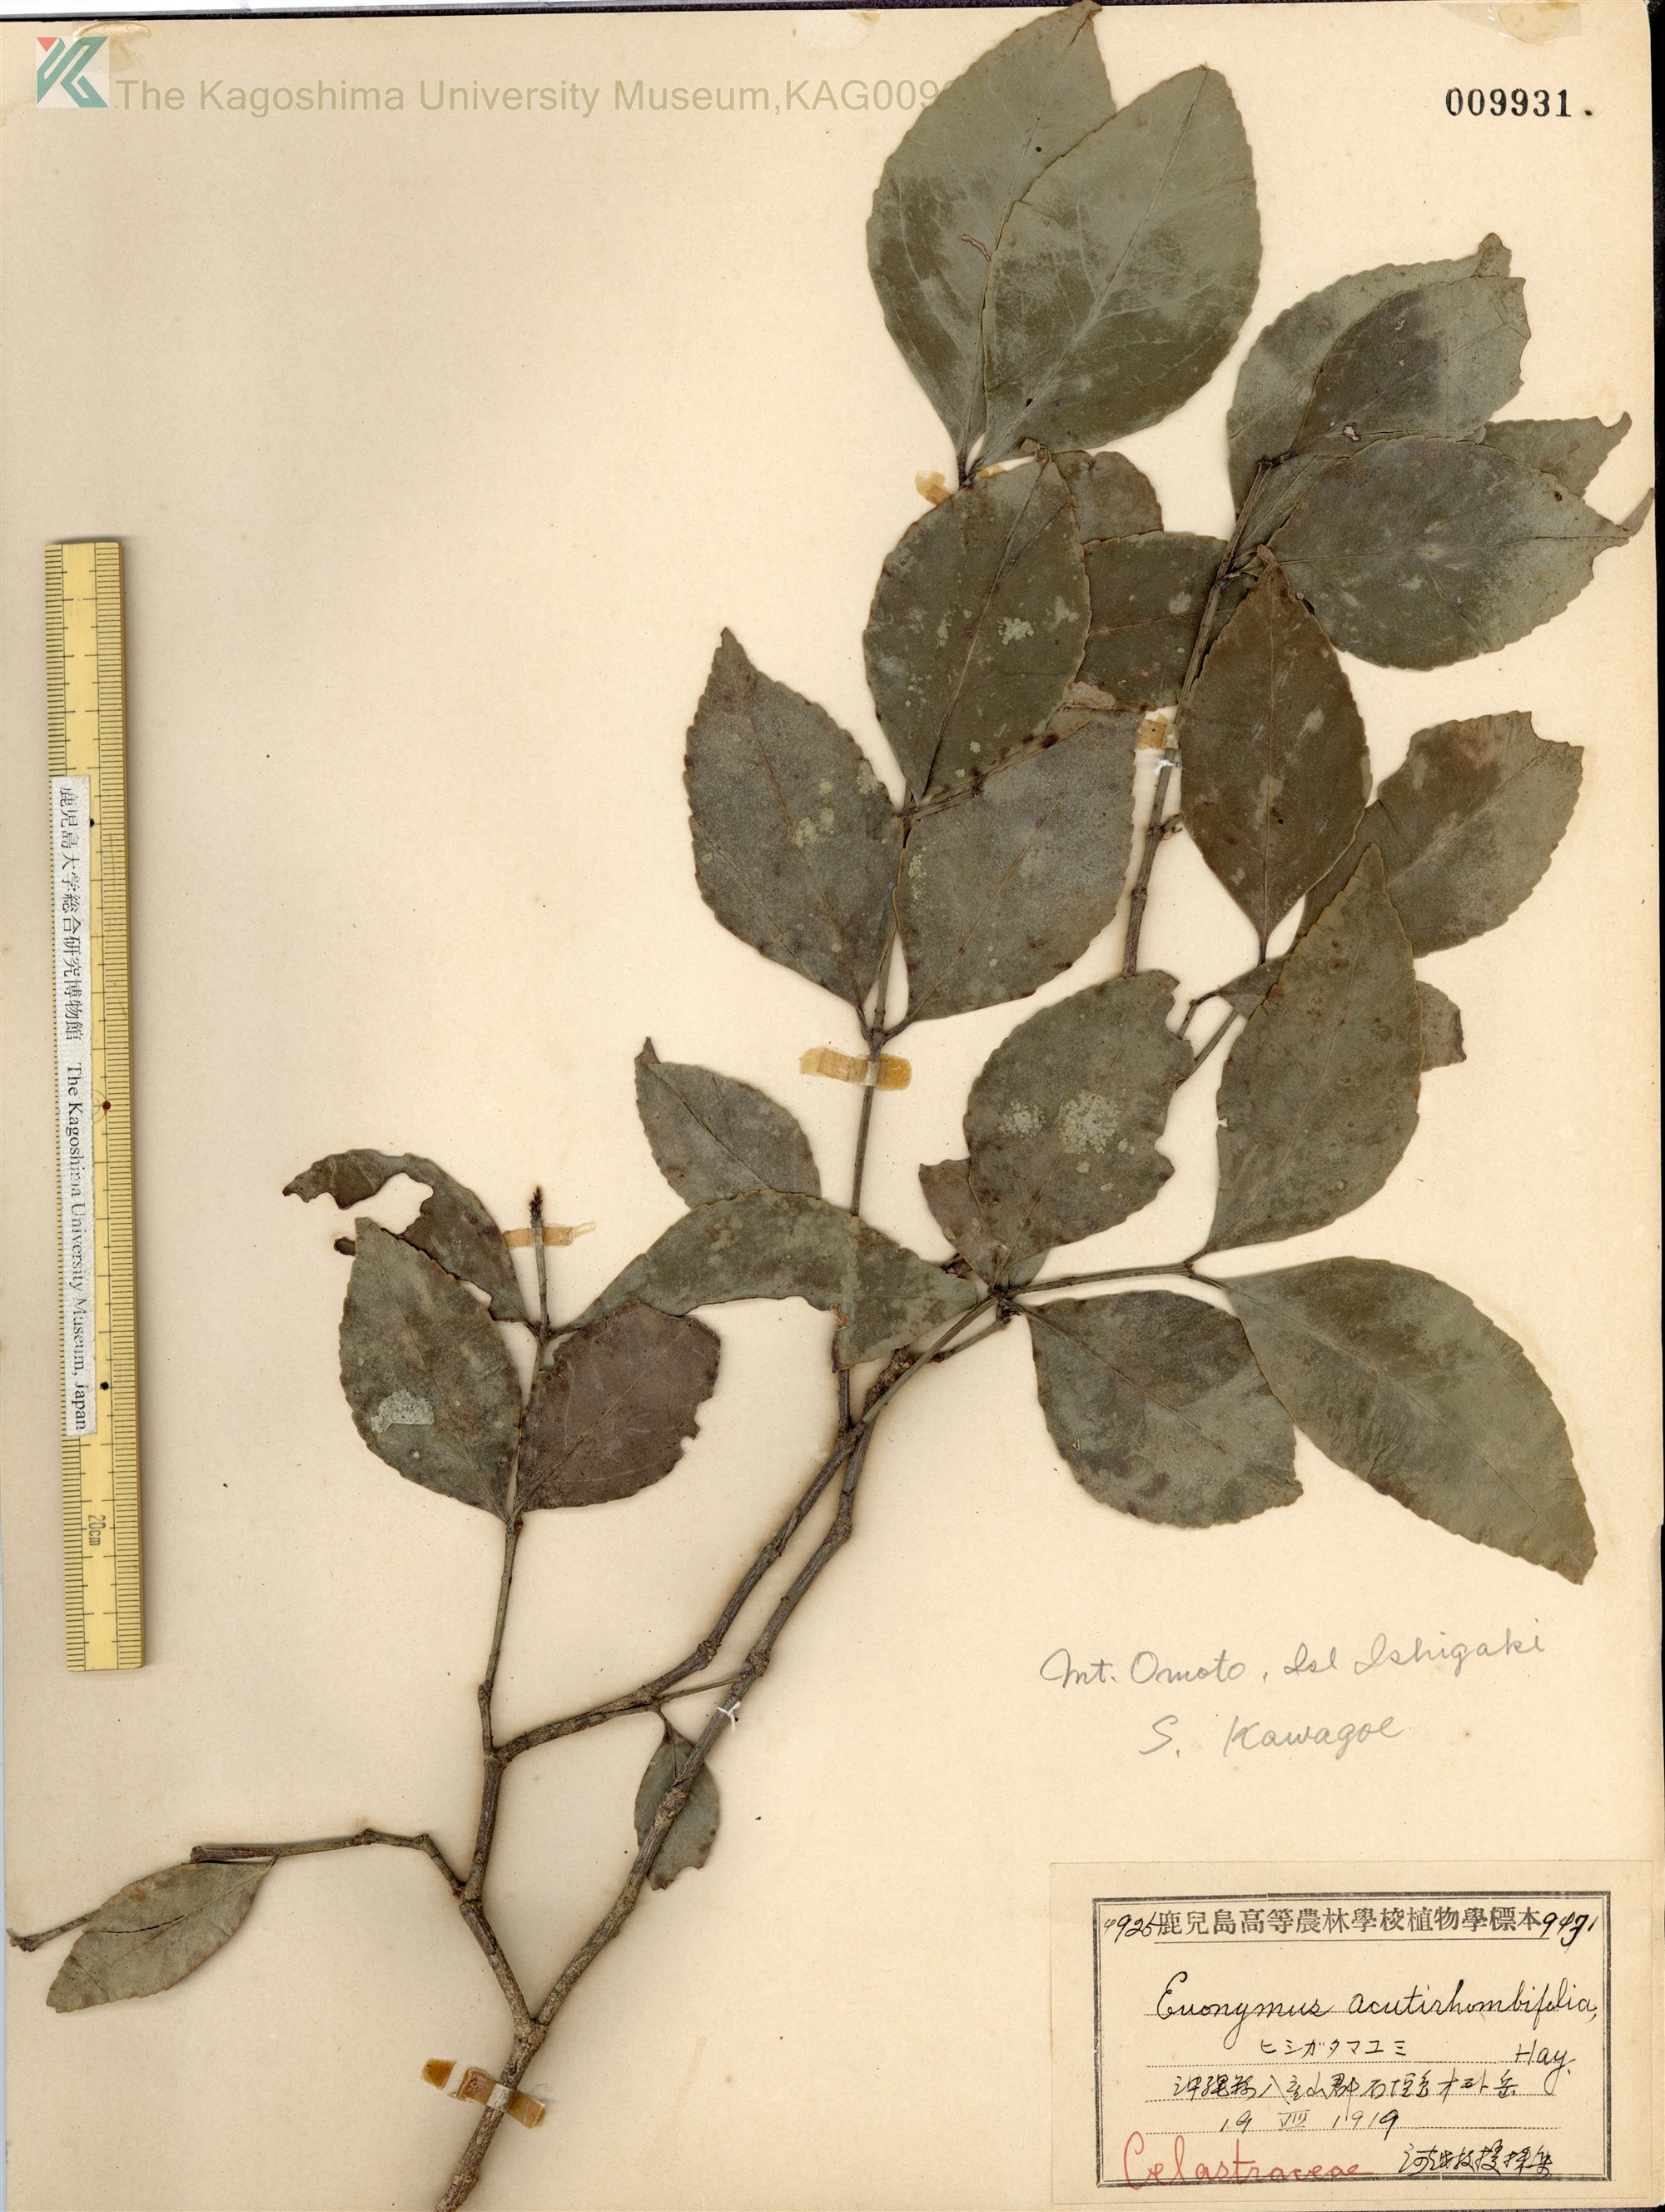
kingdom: Plantae
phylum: Tracheophyta
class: Magnoliopsida
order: Celastrales
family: Celastraceae
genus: Euonymus
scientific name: Euonymus tashiroi
